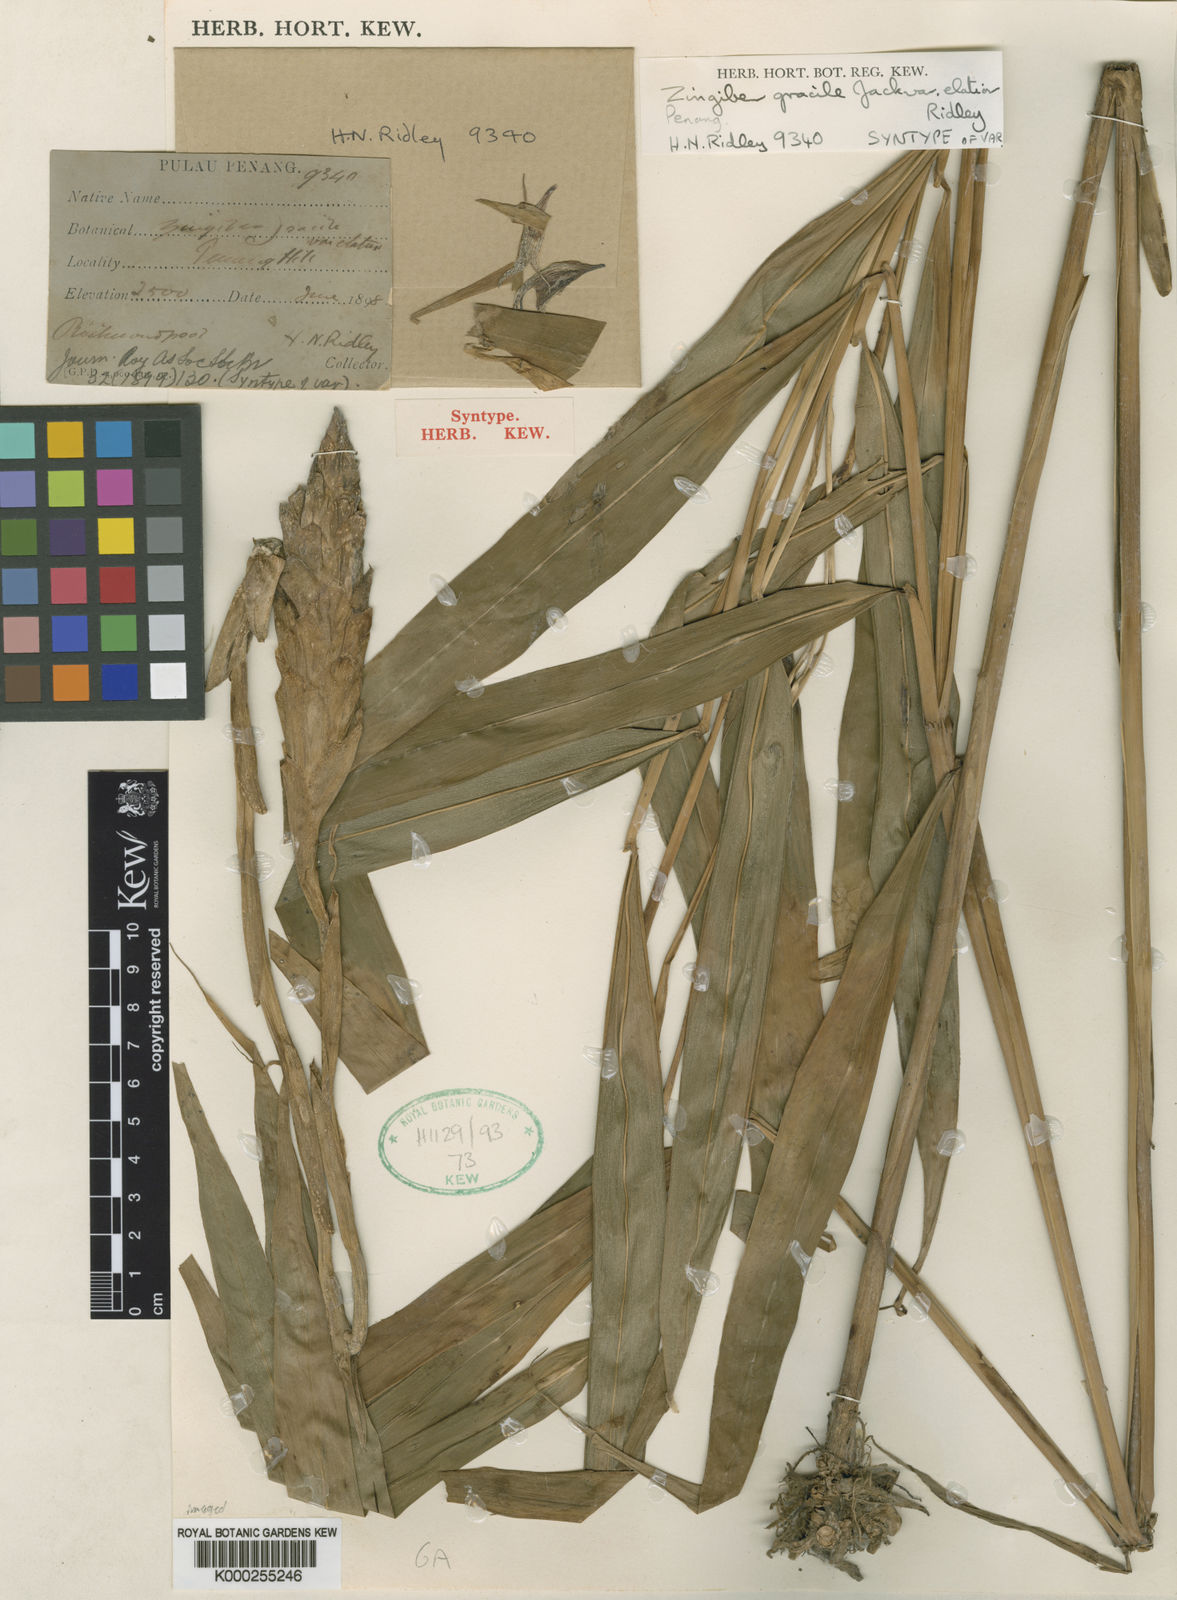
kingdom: Plantae
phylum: Tracheophyta
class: Liliopsida
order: Zingiberales
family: Zingiberaceae
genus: Zingiber
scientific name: Zingiber gracile
